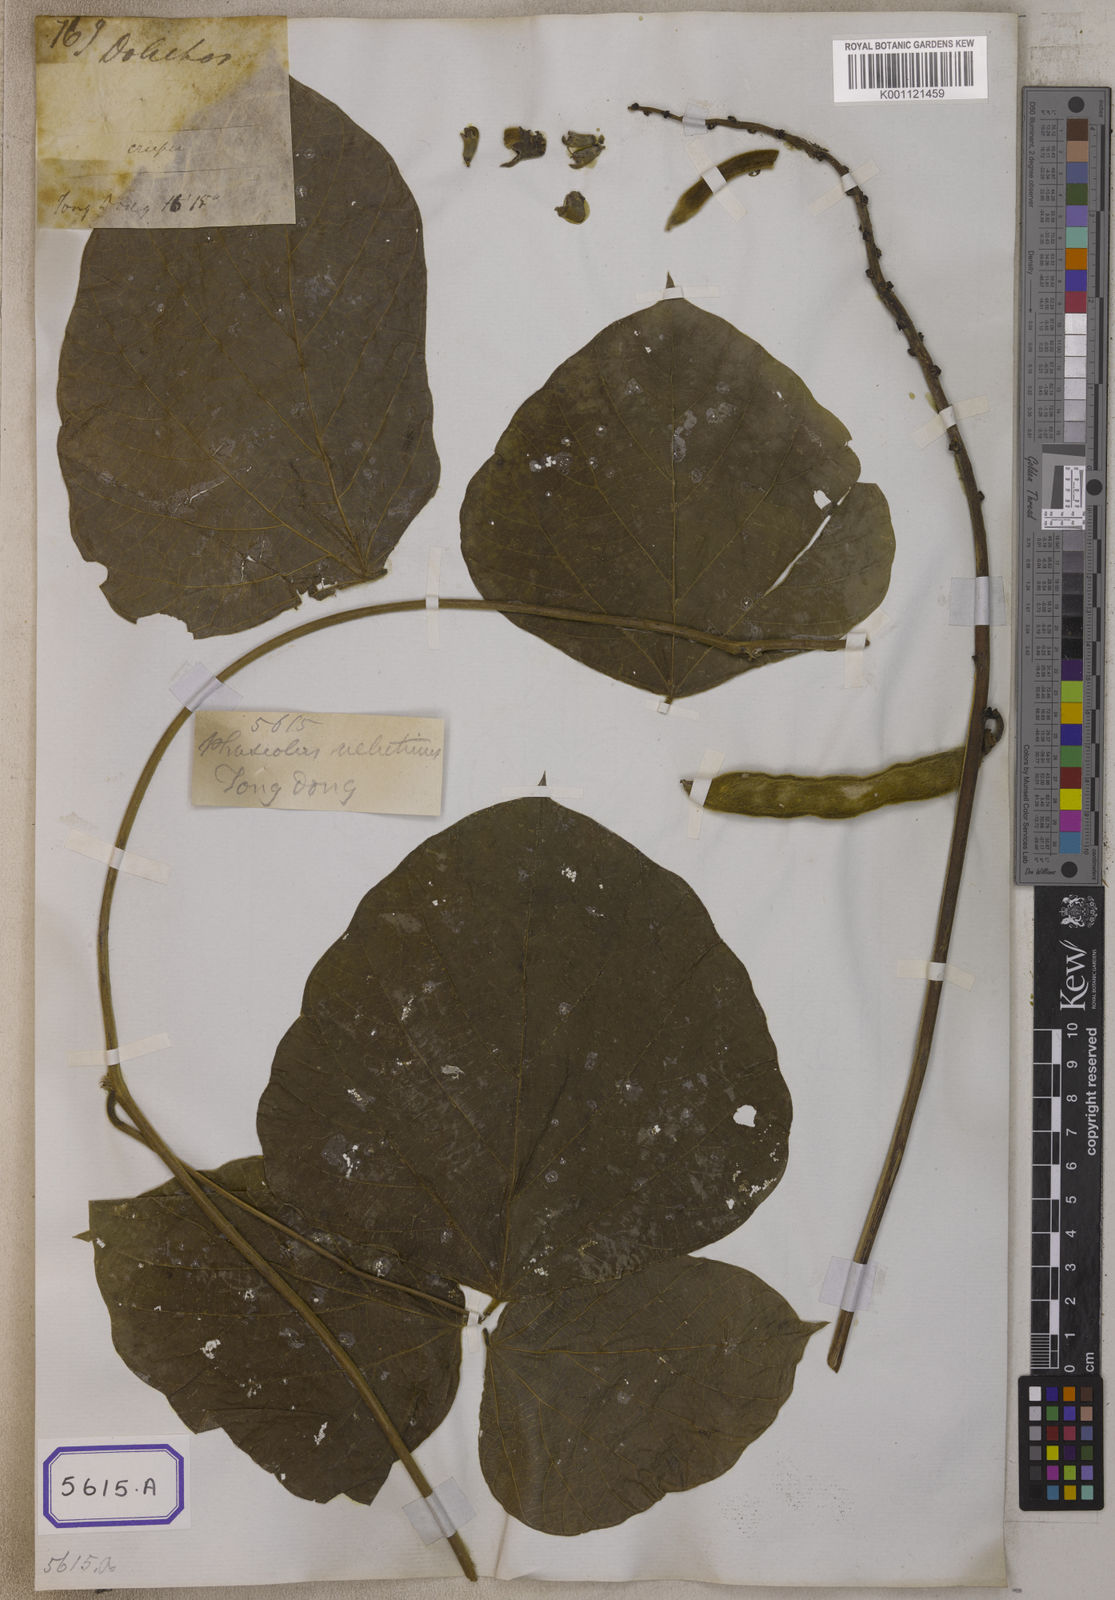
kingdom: Plantae
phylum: Tracheophyta
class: Magnoliopsida
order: Fabales
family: Fabaceae
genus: Phaseolus
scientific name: Phaseolus
